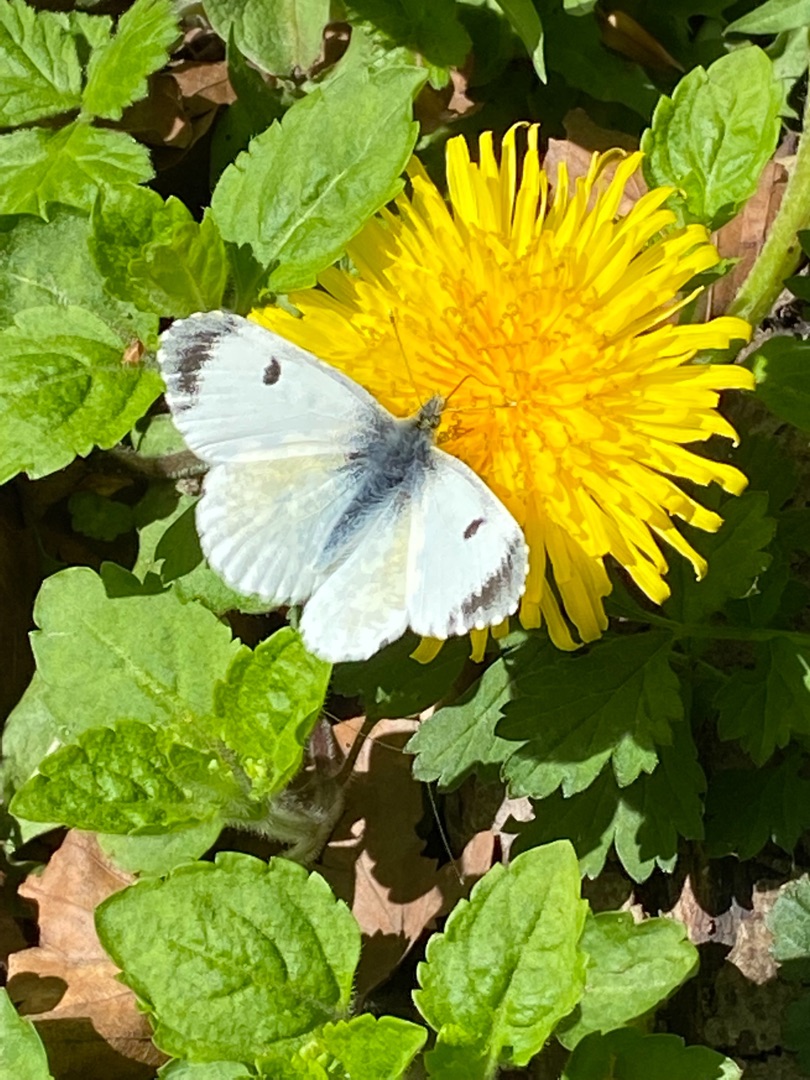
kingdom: Animalia
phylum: Arthropoda
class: Insecta
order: Lepidoptera
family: Pieridae
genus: Anthocharis
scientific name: Anthocharis cardamines
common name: Aurora
